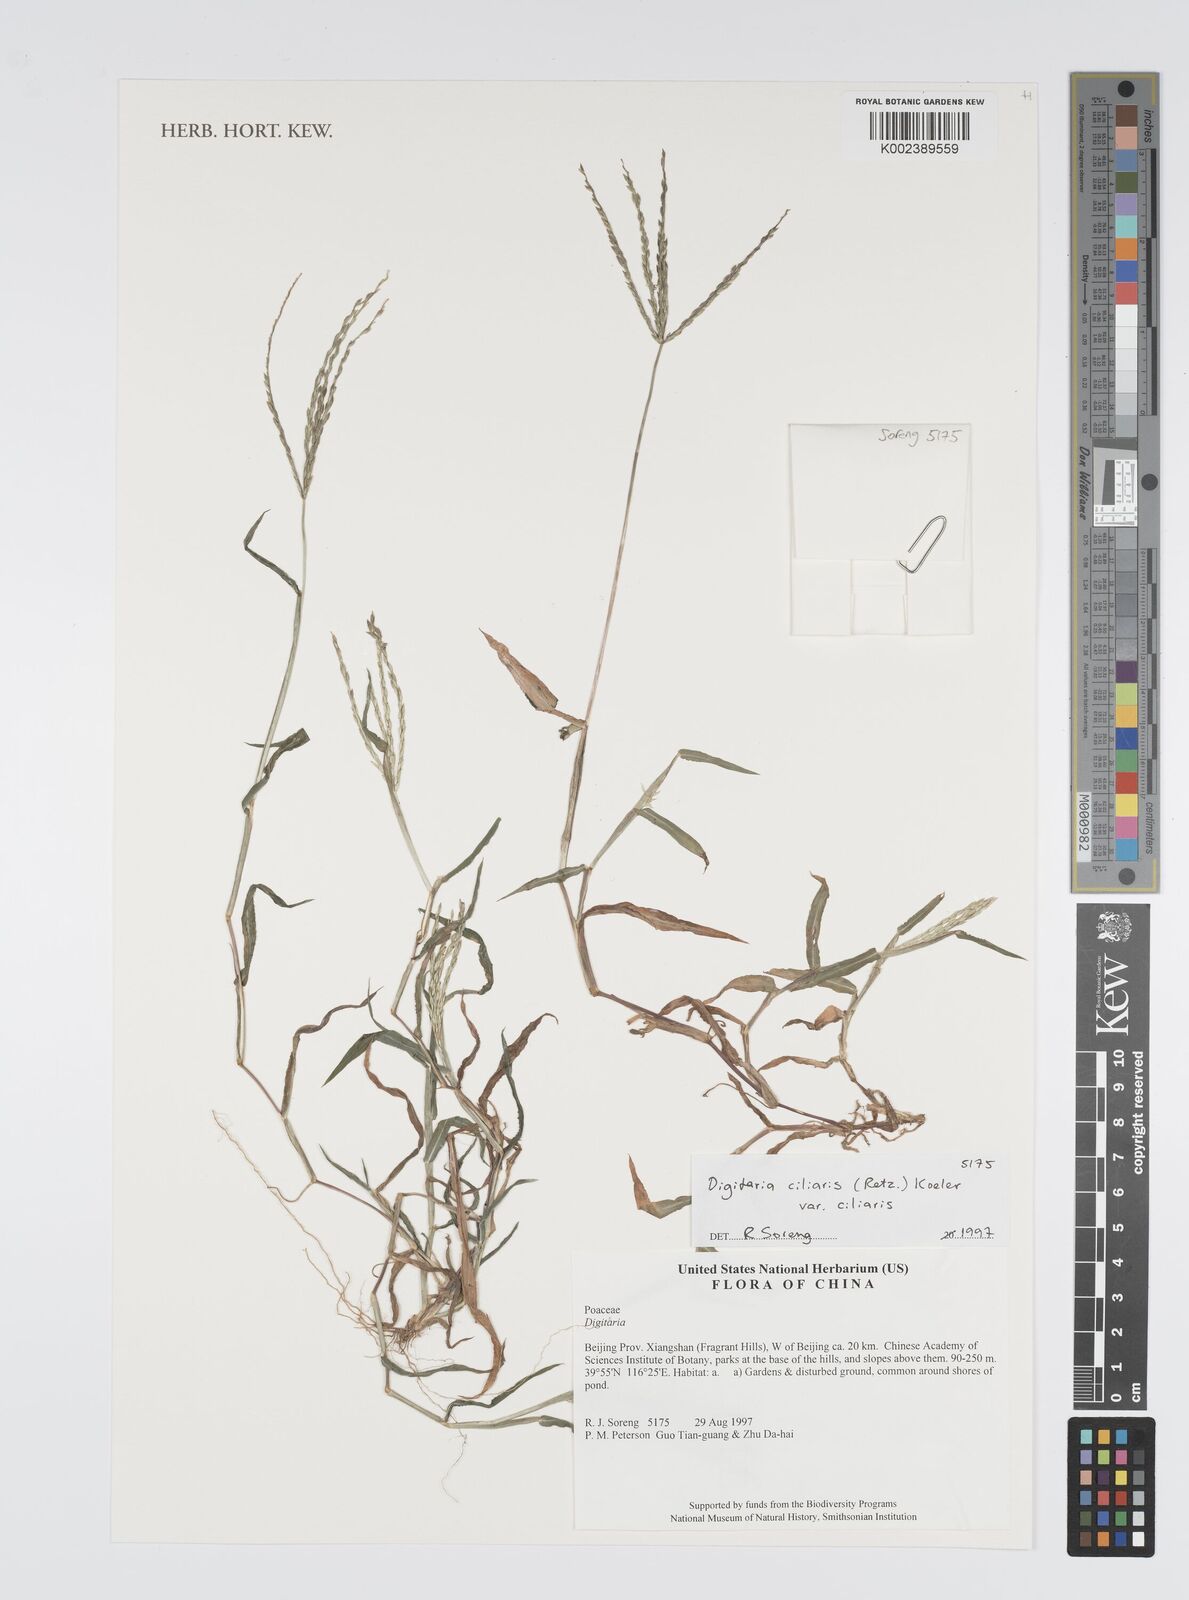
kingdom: Plantae
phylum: Tracheophyta
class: Liliopsida
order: Poales
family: Poaceae
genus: Digitaria
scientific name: Digitaria ciliaris
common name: Tropical finger-grass
